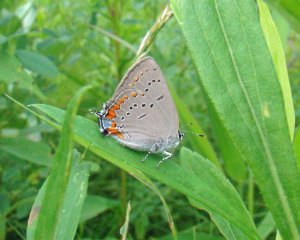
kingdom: Animalia
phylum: Arthropoda
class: Insecta
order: Lepidoptera
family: Lycaenidae
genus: Strymon
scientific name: Strymon acadica
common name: Acadian Hairstreak
